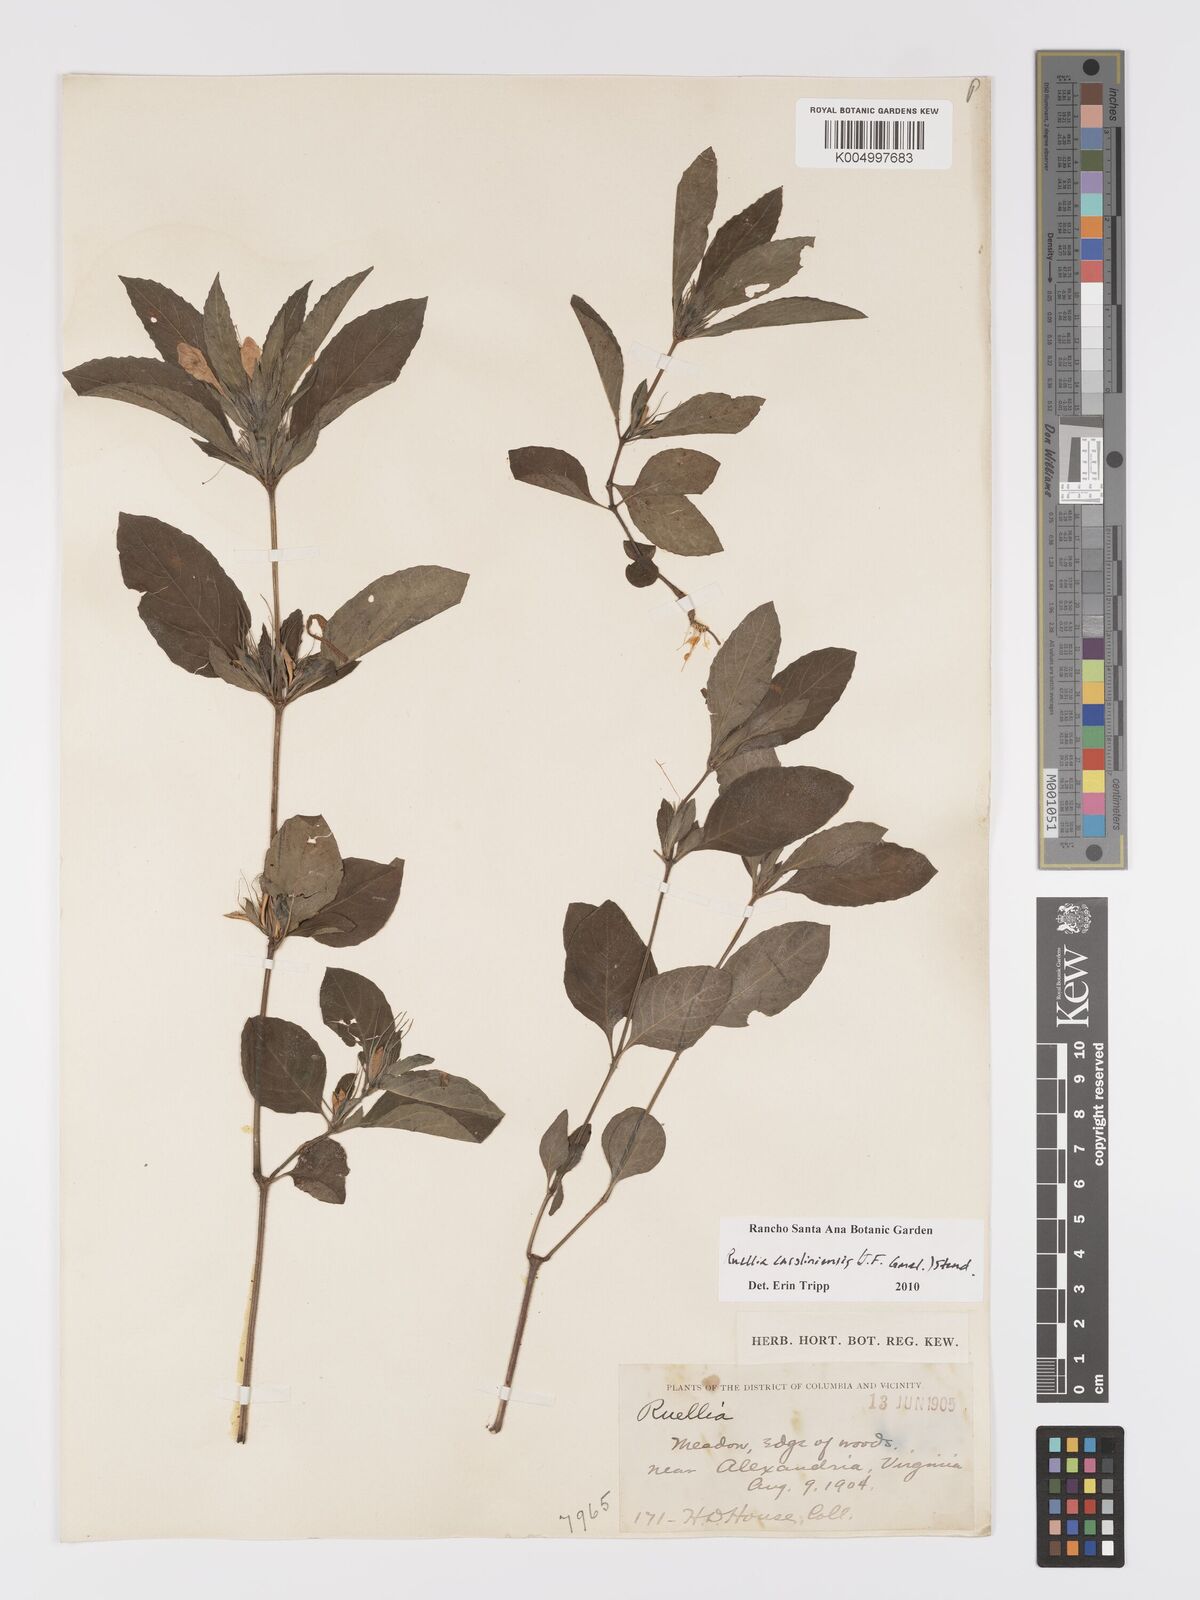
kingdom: Plantae
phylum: Tracheophyta
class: Magnoliopsida
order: Lamiales
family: Acanthaceae
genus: Ruellia
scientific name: Ruellia caroliniensis
